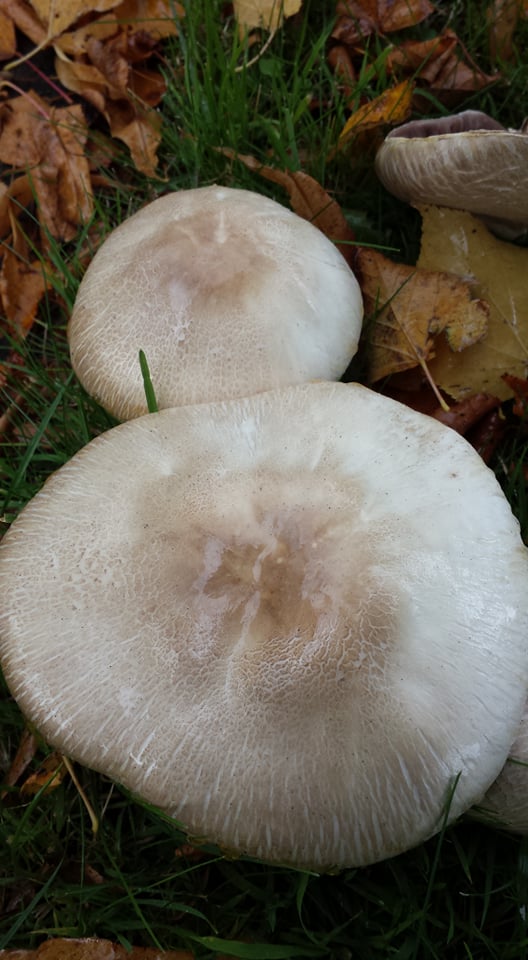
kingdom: Fungi
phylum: Basidiomycota
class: Agaricomycetes
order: Agaricales
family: Agaricaceae
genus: Agaricus
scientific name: Agaricus xanthodermus
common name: karbol-champignon
